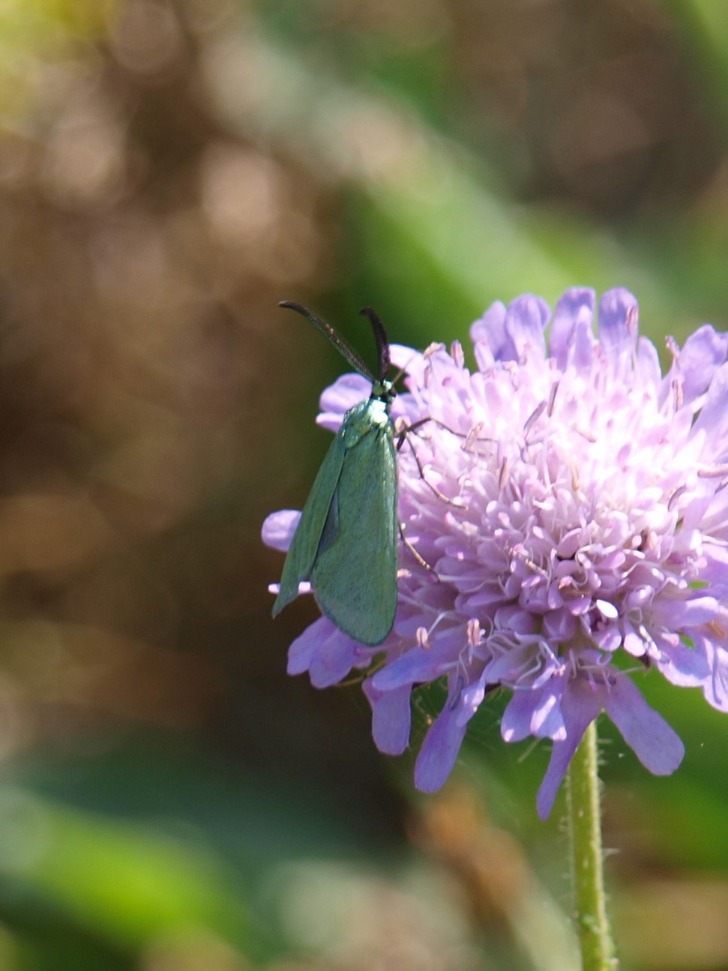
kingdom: Animalia
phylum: Arthropoda
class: Insecta
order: Lepidoptera
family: Zygaenidae
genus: Adscita
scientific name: Adscita statices
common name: Metalvinge
